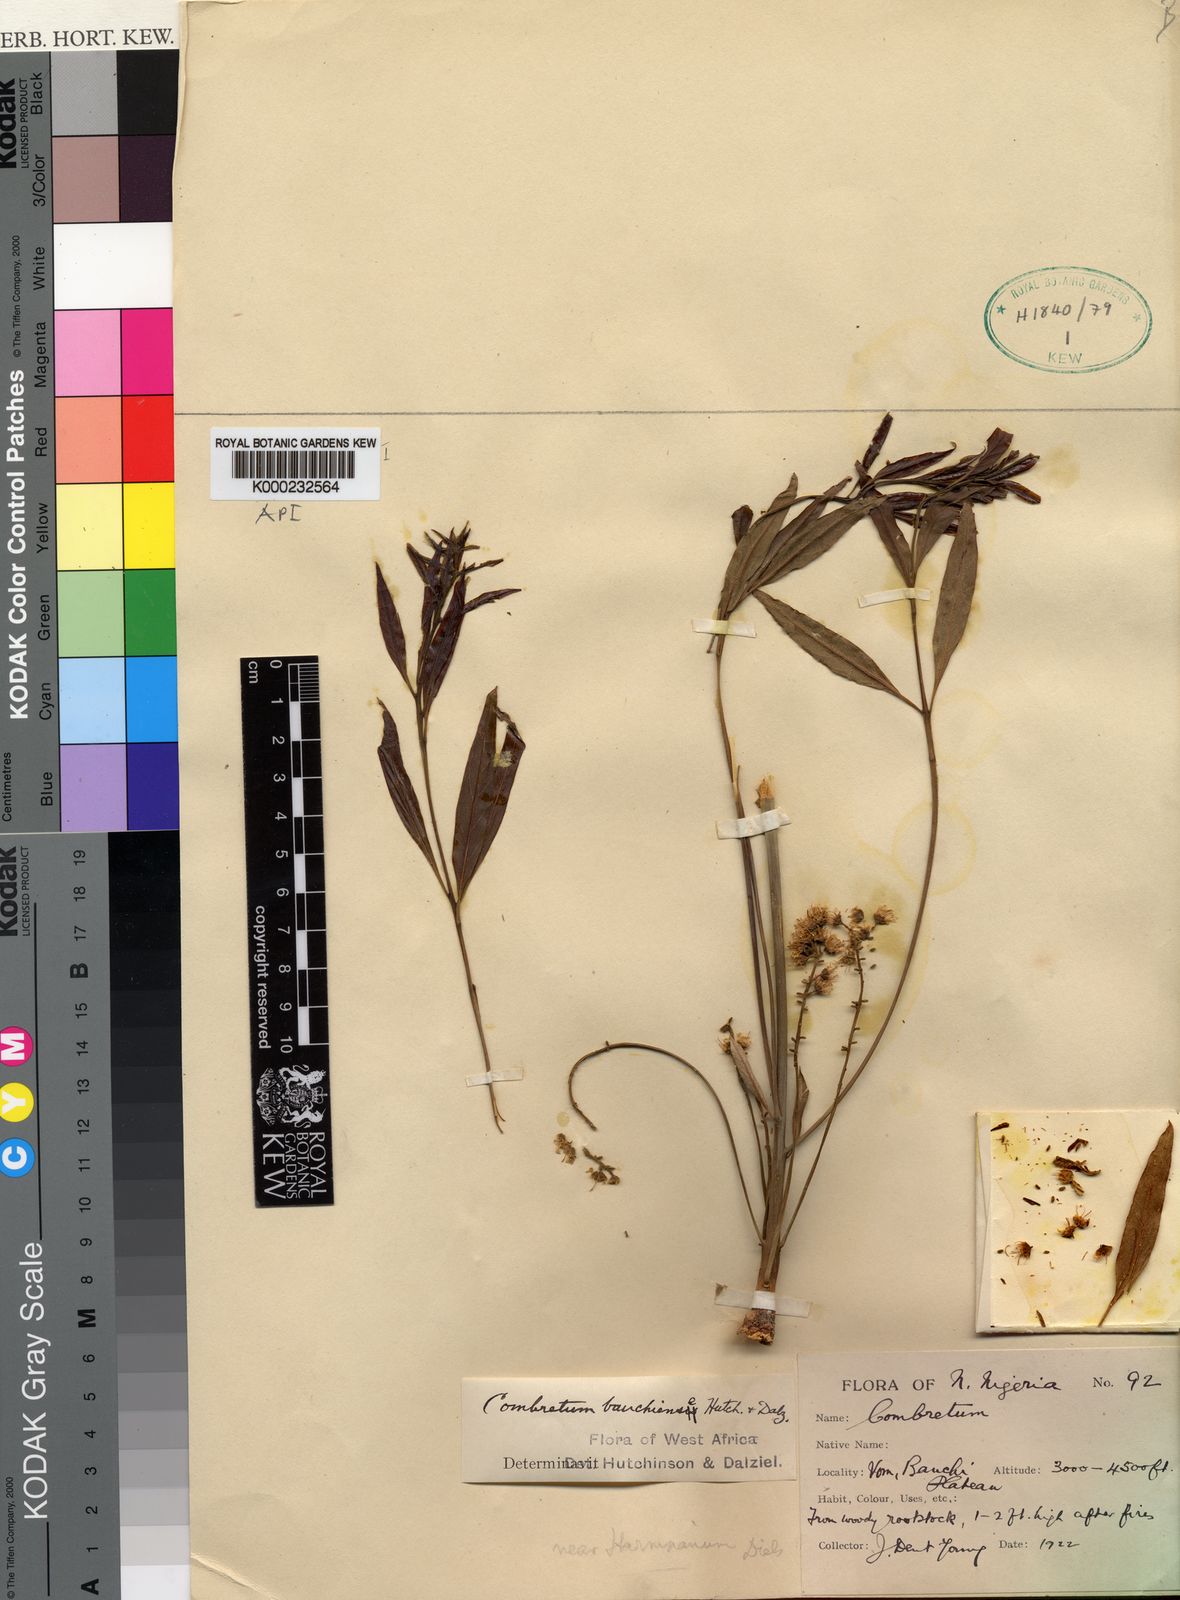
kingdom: Plantae
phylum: Tracheophyta
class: Magnoliopsida
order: Myrtales
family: Combretaceae
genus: Combretum
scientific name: Combretum bauchiense
